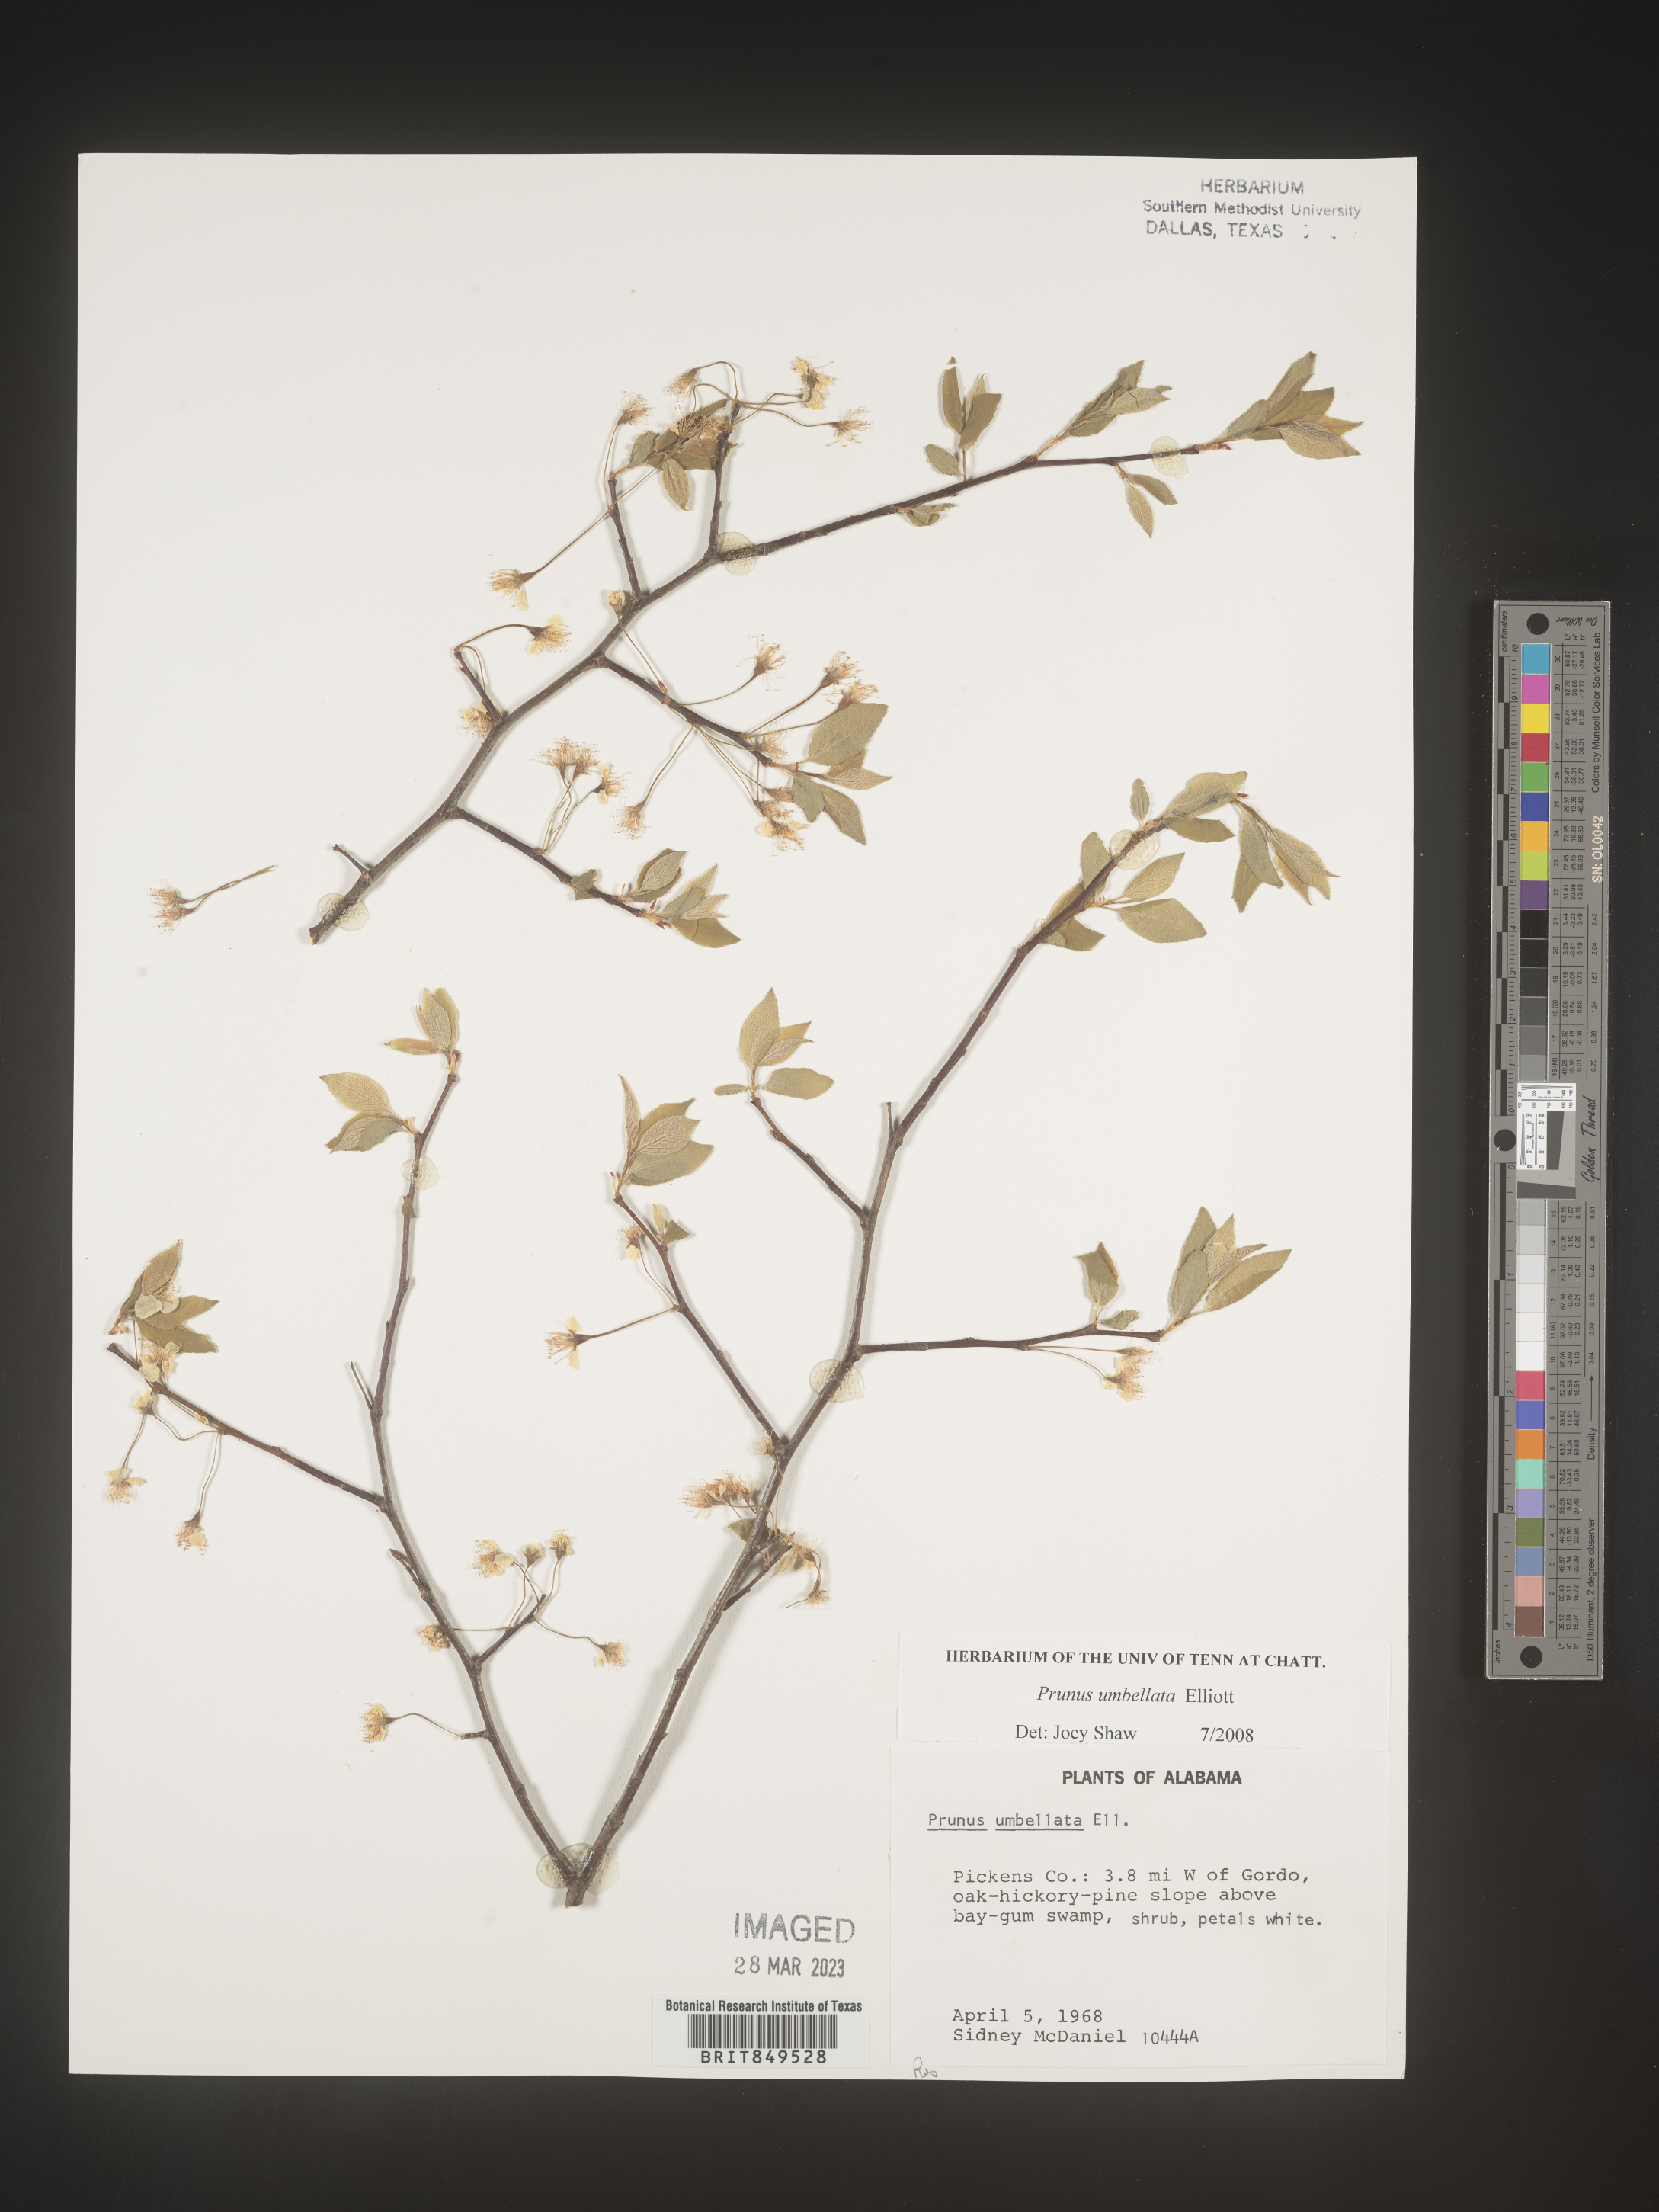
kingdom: Plantae
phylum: Tracheophyta
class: Magnoliopsida
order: Rosales
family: Rosaceae
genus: Prunus
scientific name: Prunus umbellata
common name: Allegheny plum
